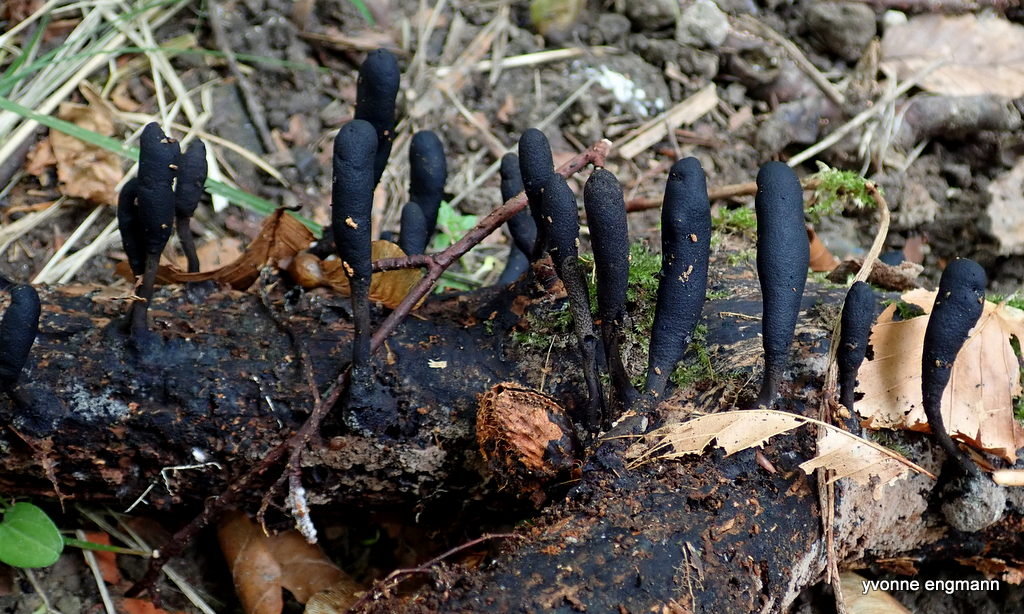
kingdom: Fungi
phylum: Ascomycota
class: Sordariomycetes
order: Xylariales
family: Xylariaceae
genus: Xylaria
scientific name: Xylaria longipes
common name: slank stødsvamp
